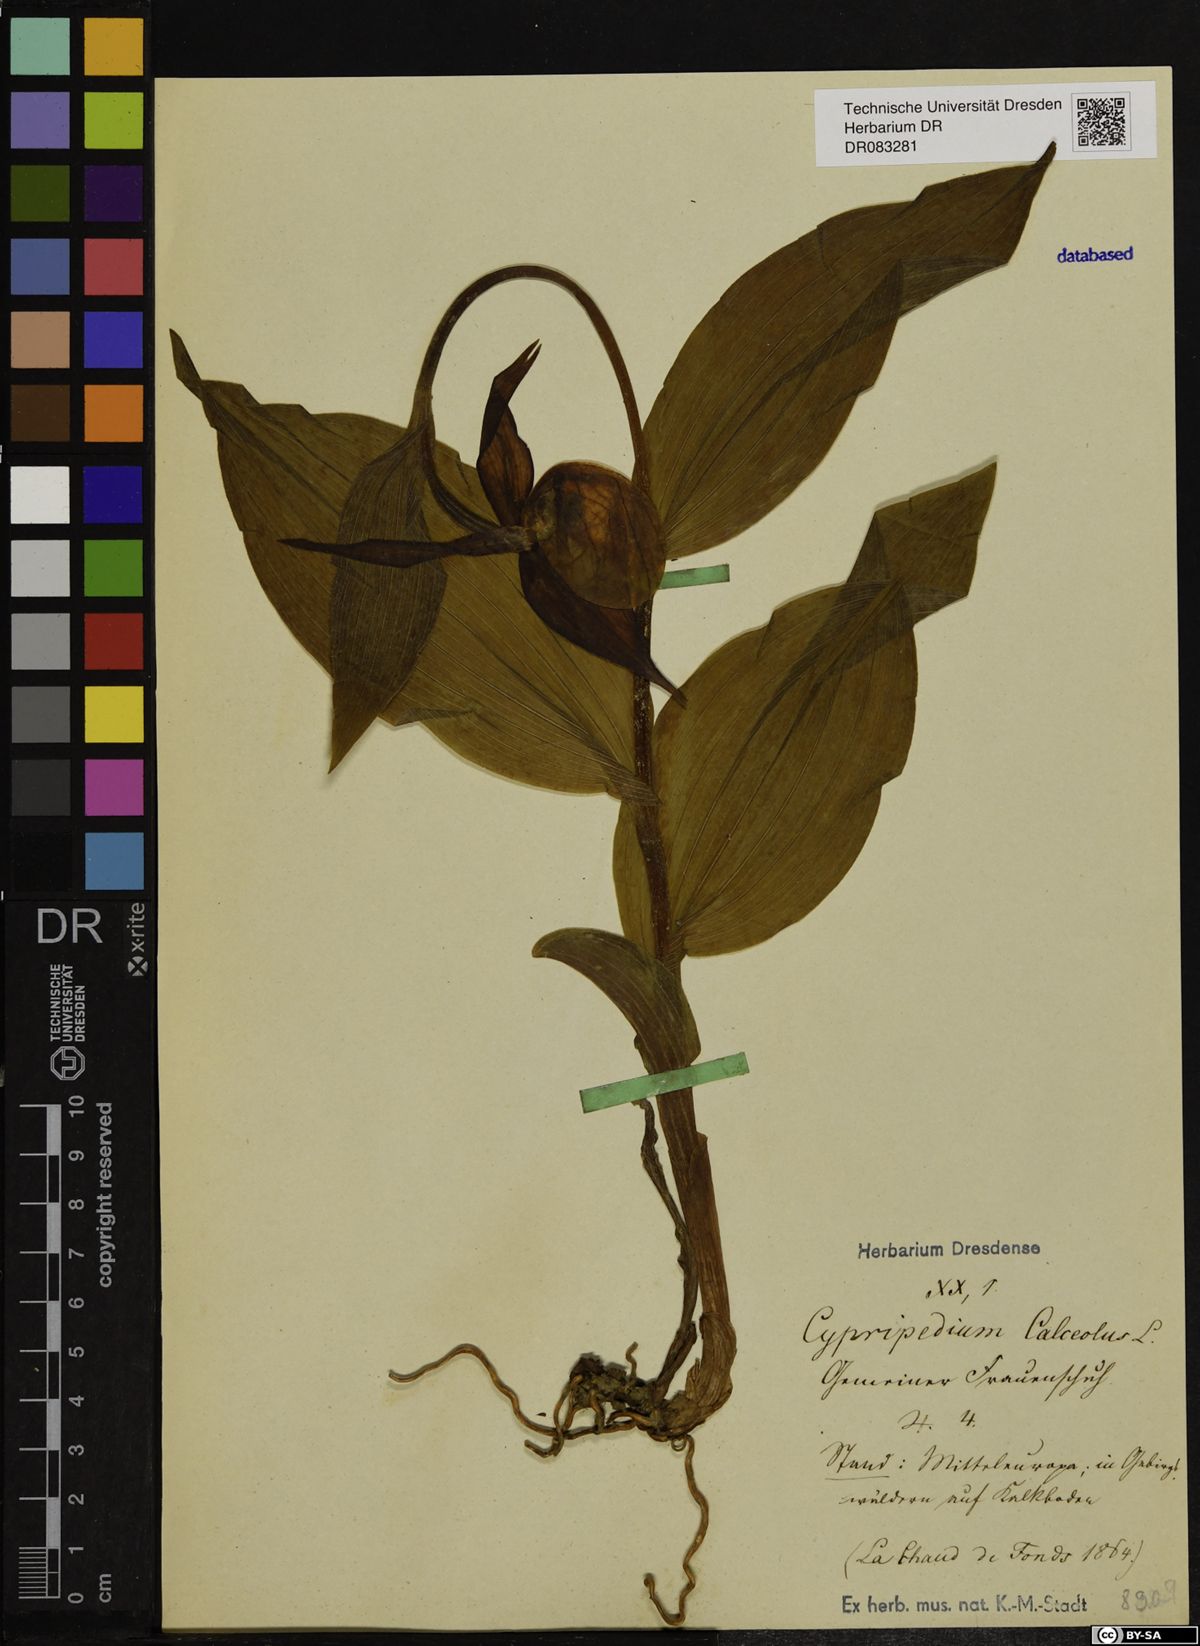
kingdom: Plantae
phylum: Tracheophyta
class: Liliopsida
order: Asparagales
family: Orchidaceae
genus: Cypripedium
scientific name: Cypripedium calceolus
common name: Lady's-slipper
